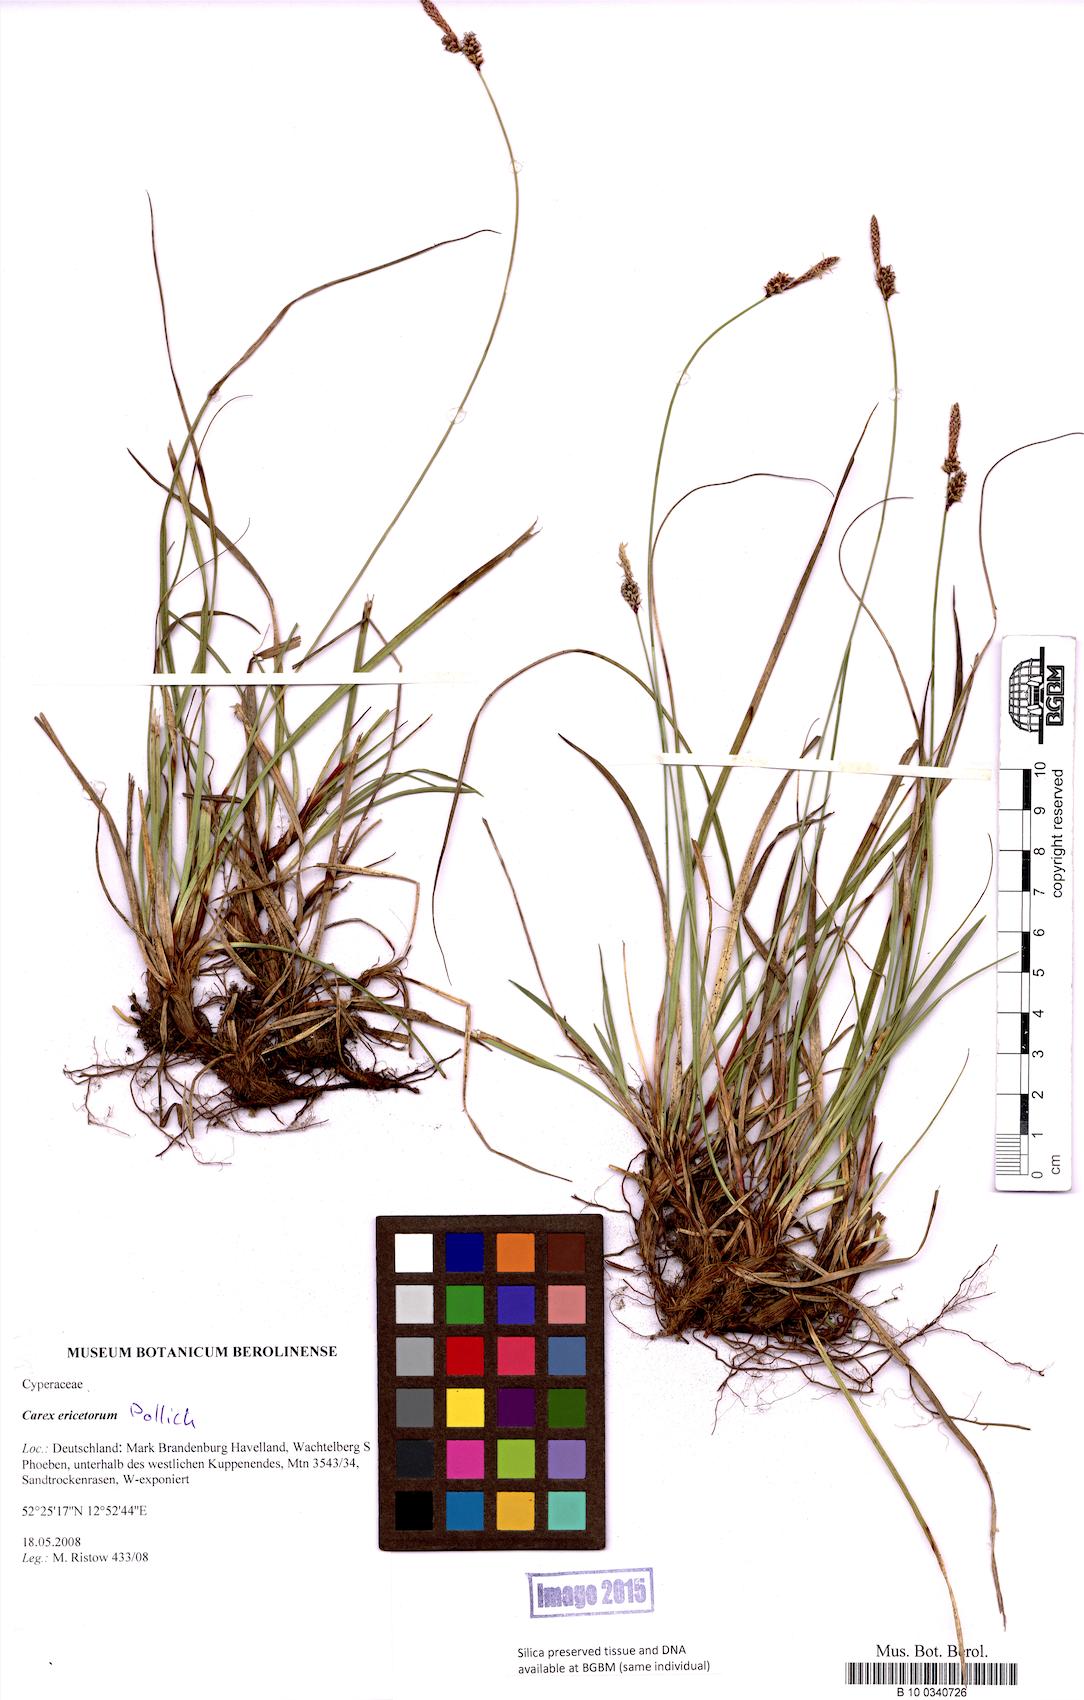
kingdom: Plantae
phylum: Tracheophyta
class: Liliopsida
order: Poales
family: Cyperaceae
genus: Carex
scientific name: Carex ericetorum
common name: Rare spring-sedge
